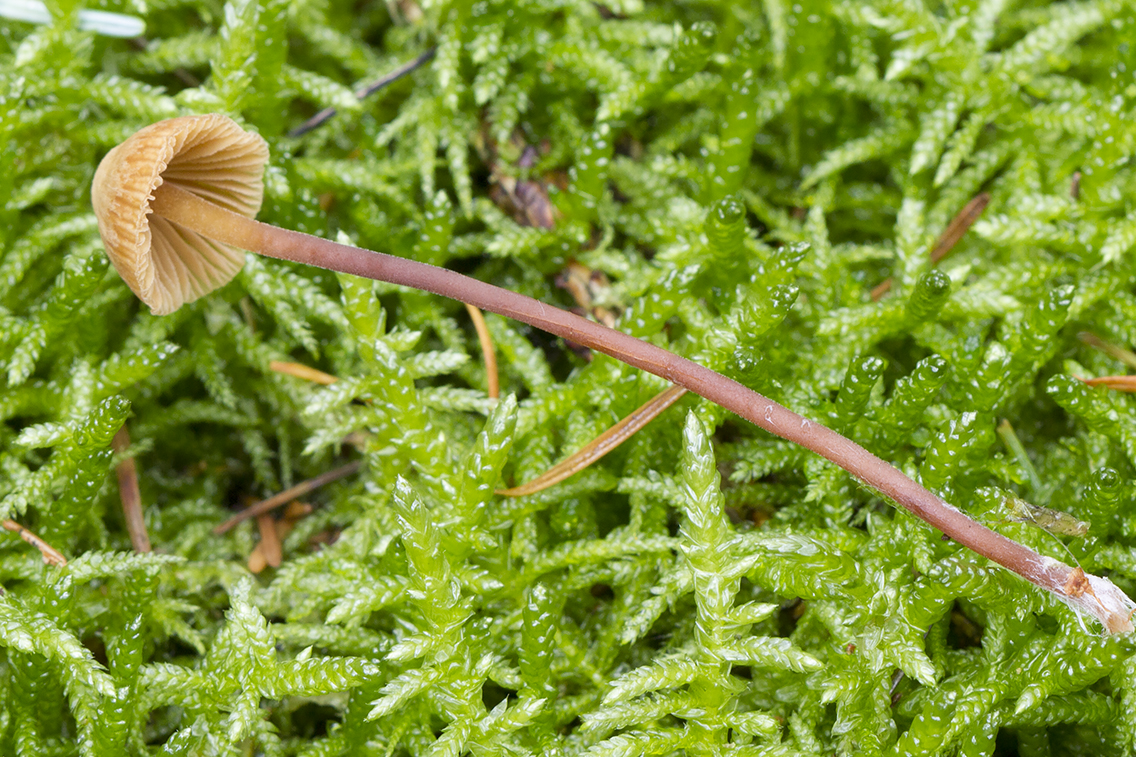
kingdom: Fungi
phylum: Basidiomycota
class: Agaricomycetes
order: Agaricales
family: Hymenogastraceae
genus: Galerina
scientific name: Galerina vittiformis
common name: Hairy leg bell
